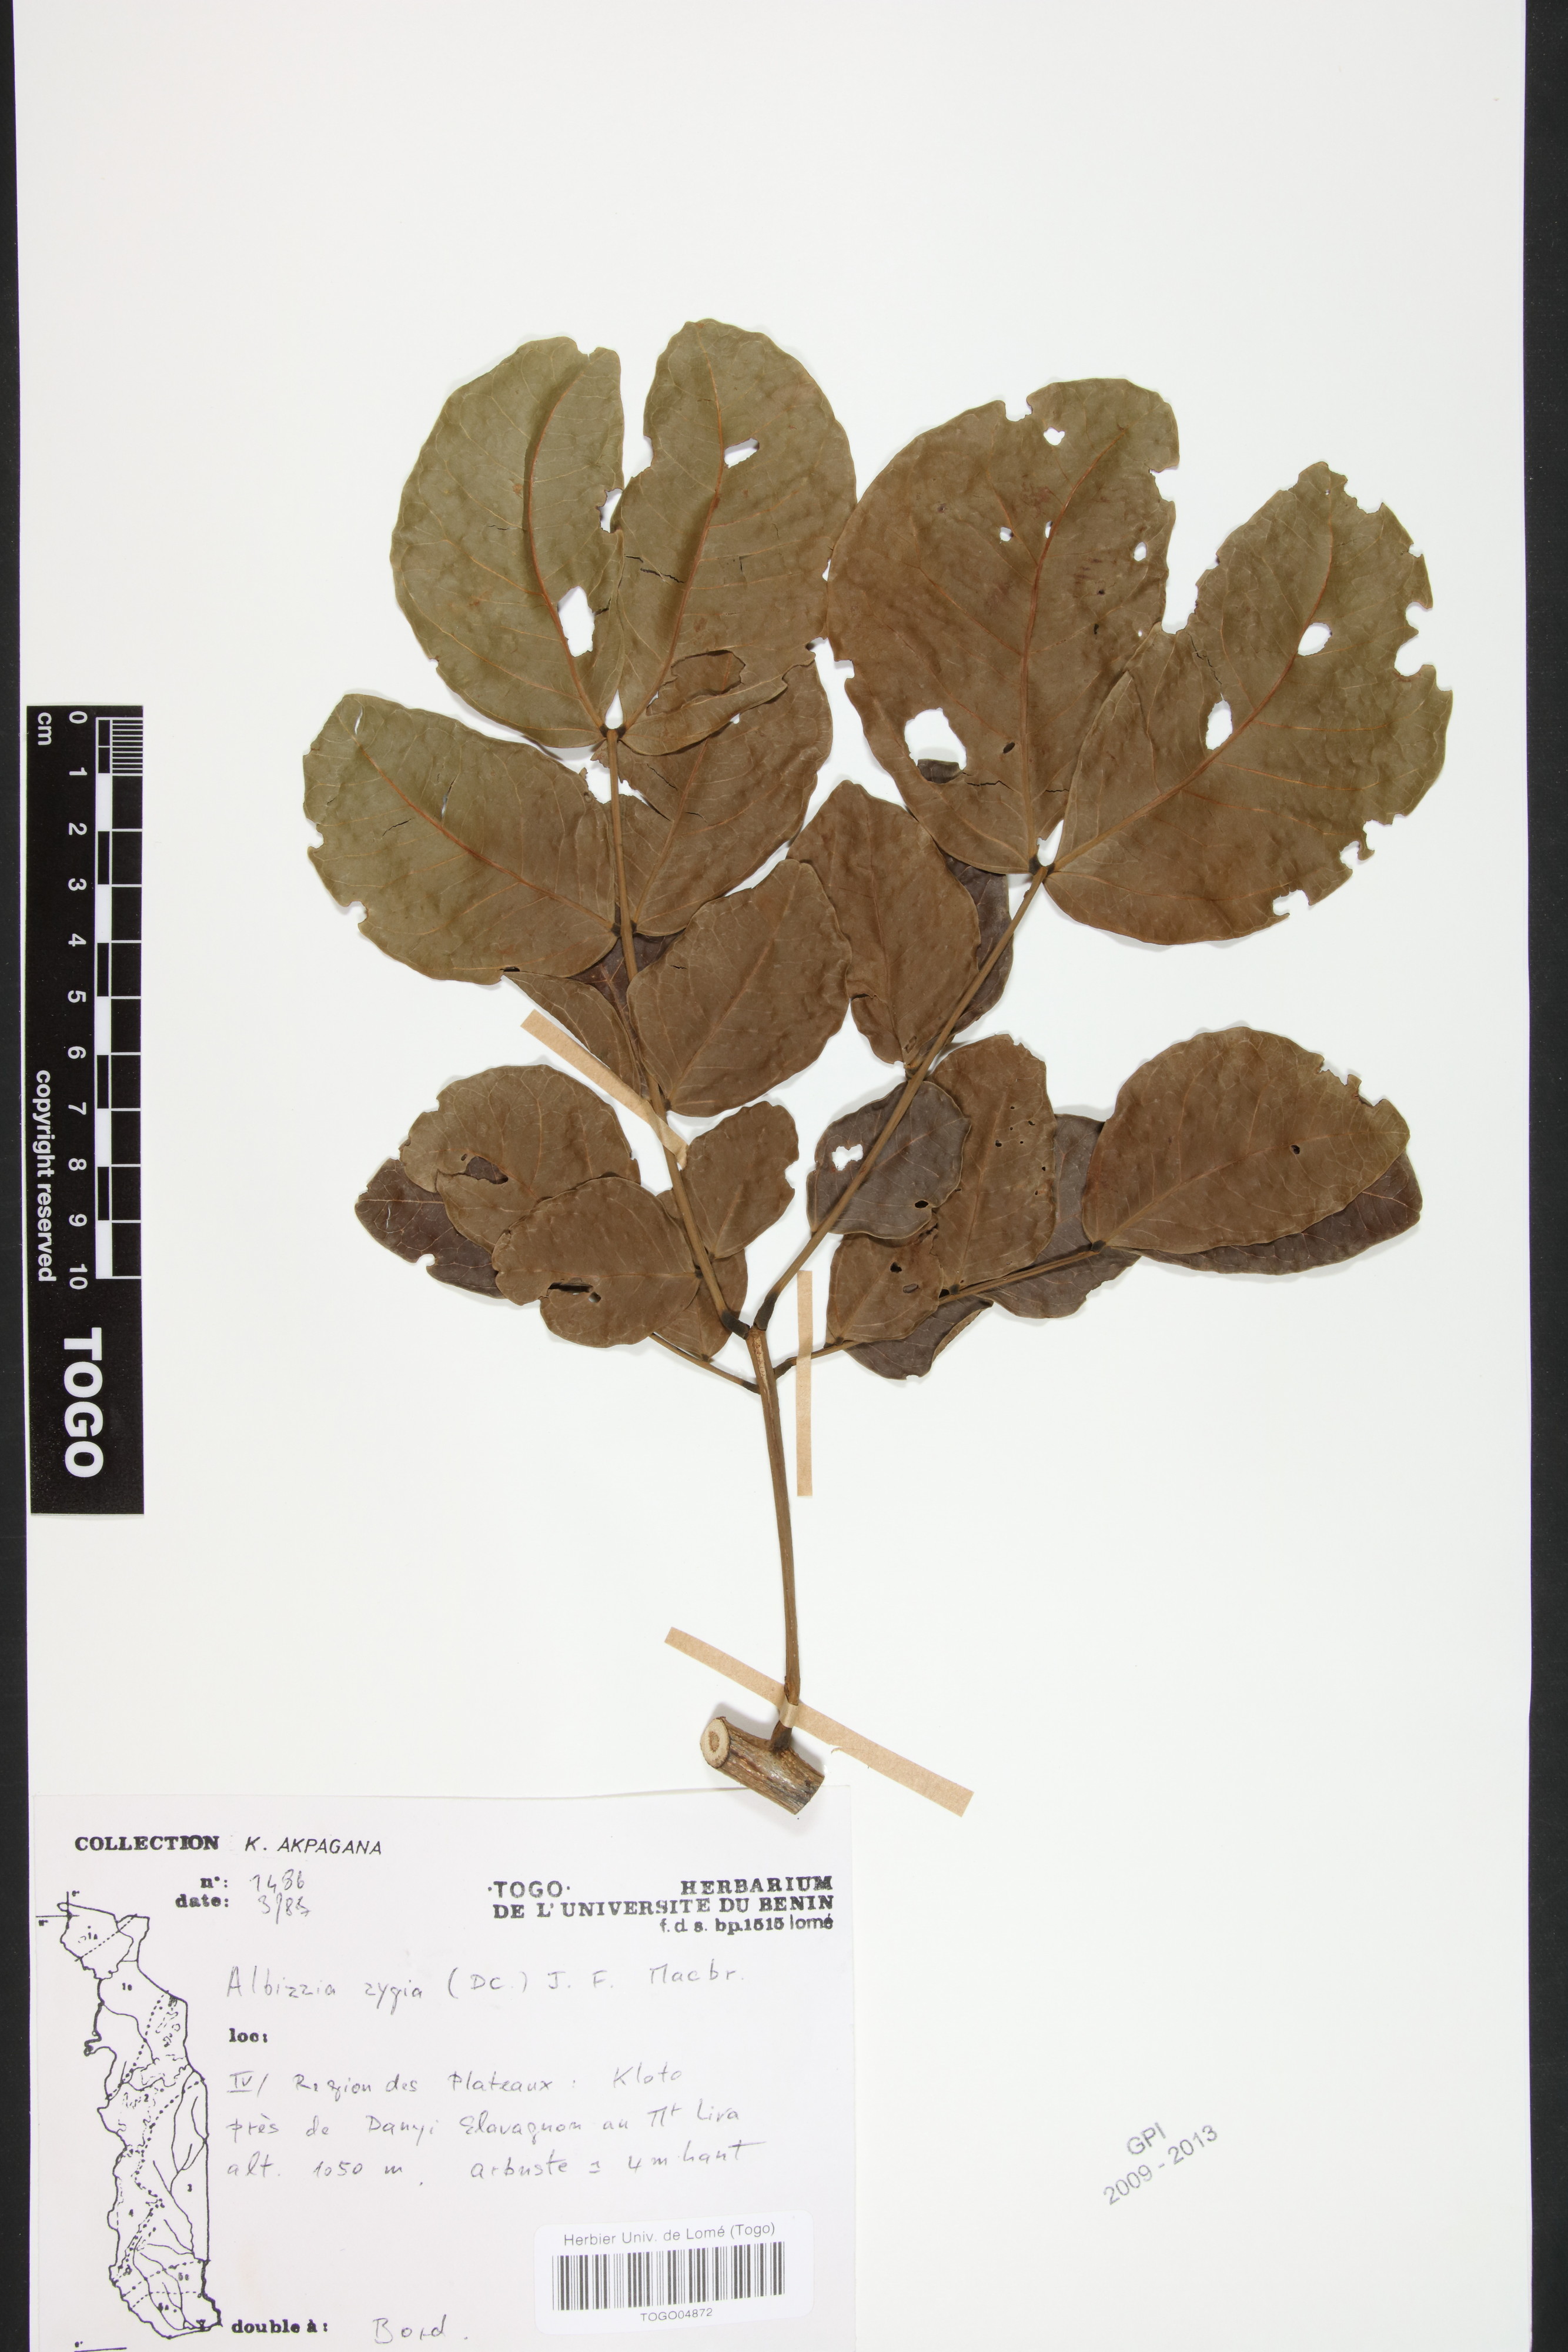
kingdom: Plantae
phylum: Tracheophyta
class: Magnoliopsida
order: Fabales
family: Fabaceae
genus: Albizia
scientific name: Albizia zygia
